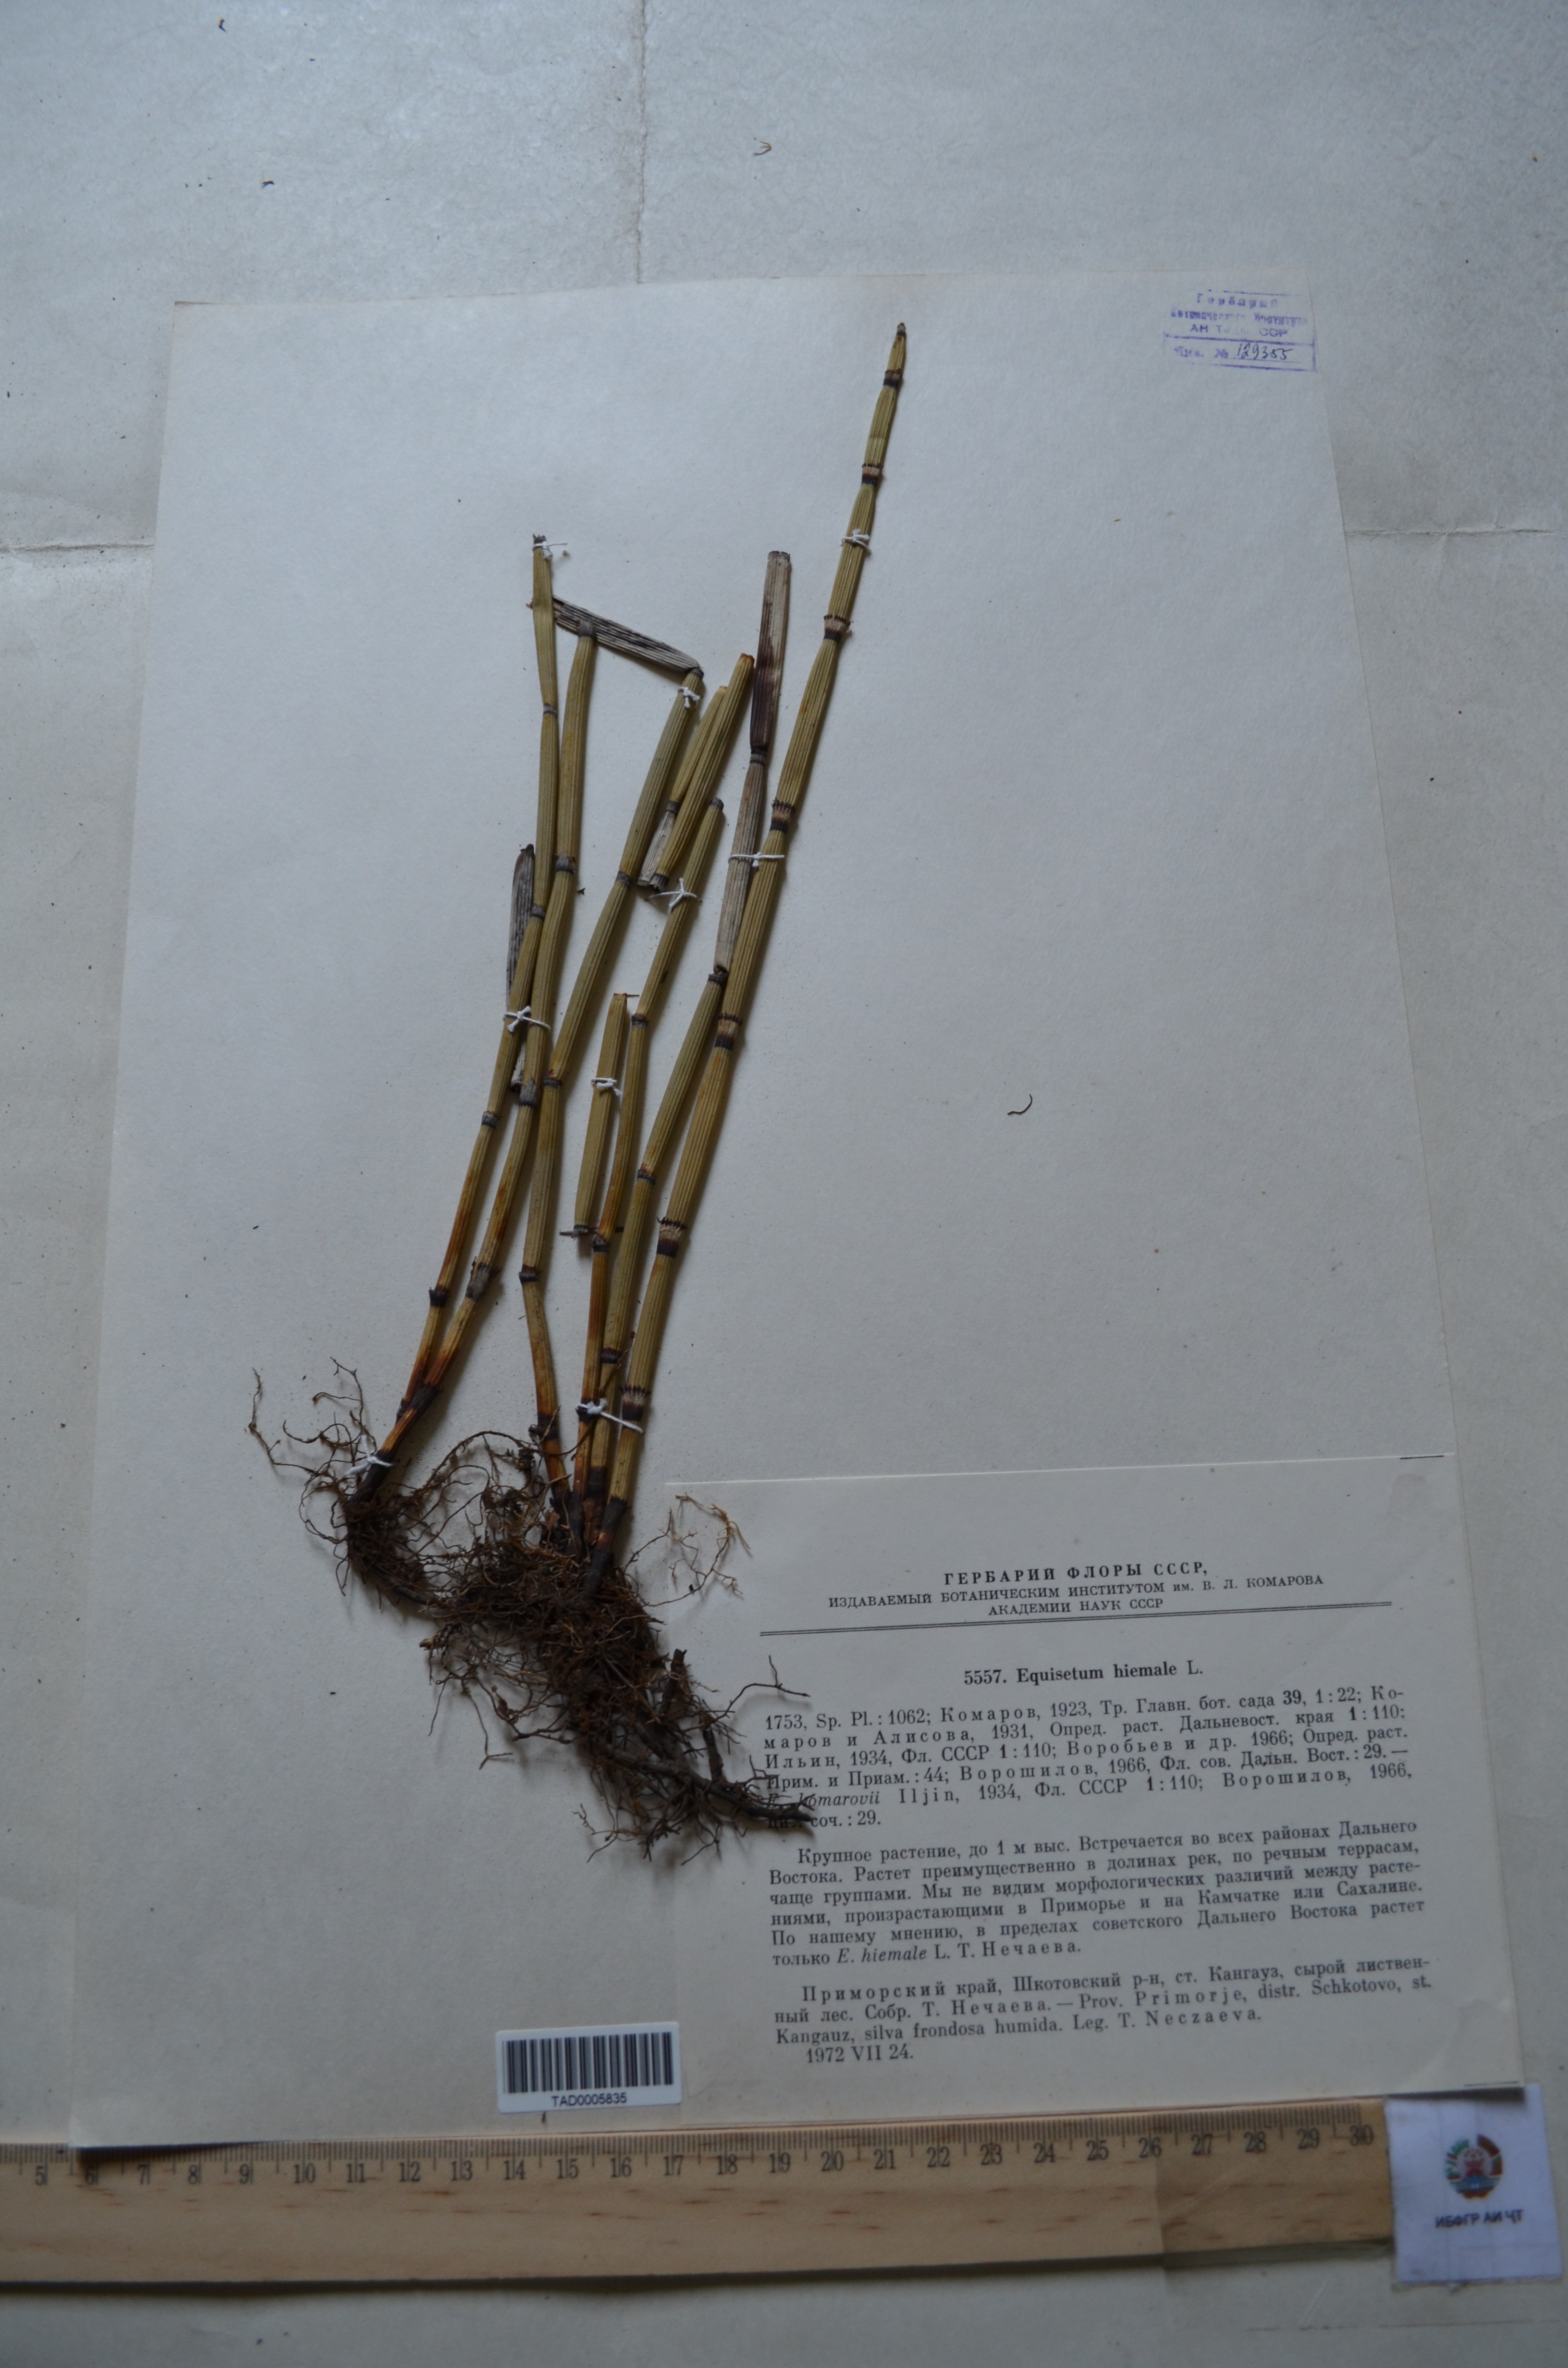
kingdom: Plantae
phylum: Tracheophyta
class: Polypodiopsida
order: Equisetales
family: Equisetaceae
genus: Equisetum
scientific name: Equisetum hyemale
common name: Rough horsetail
